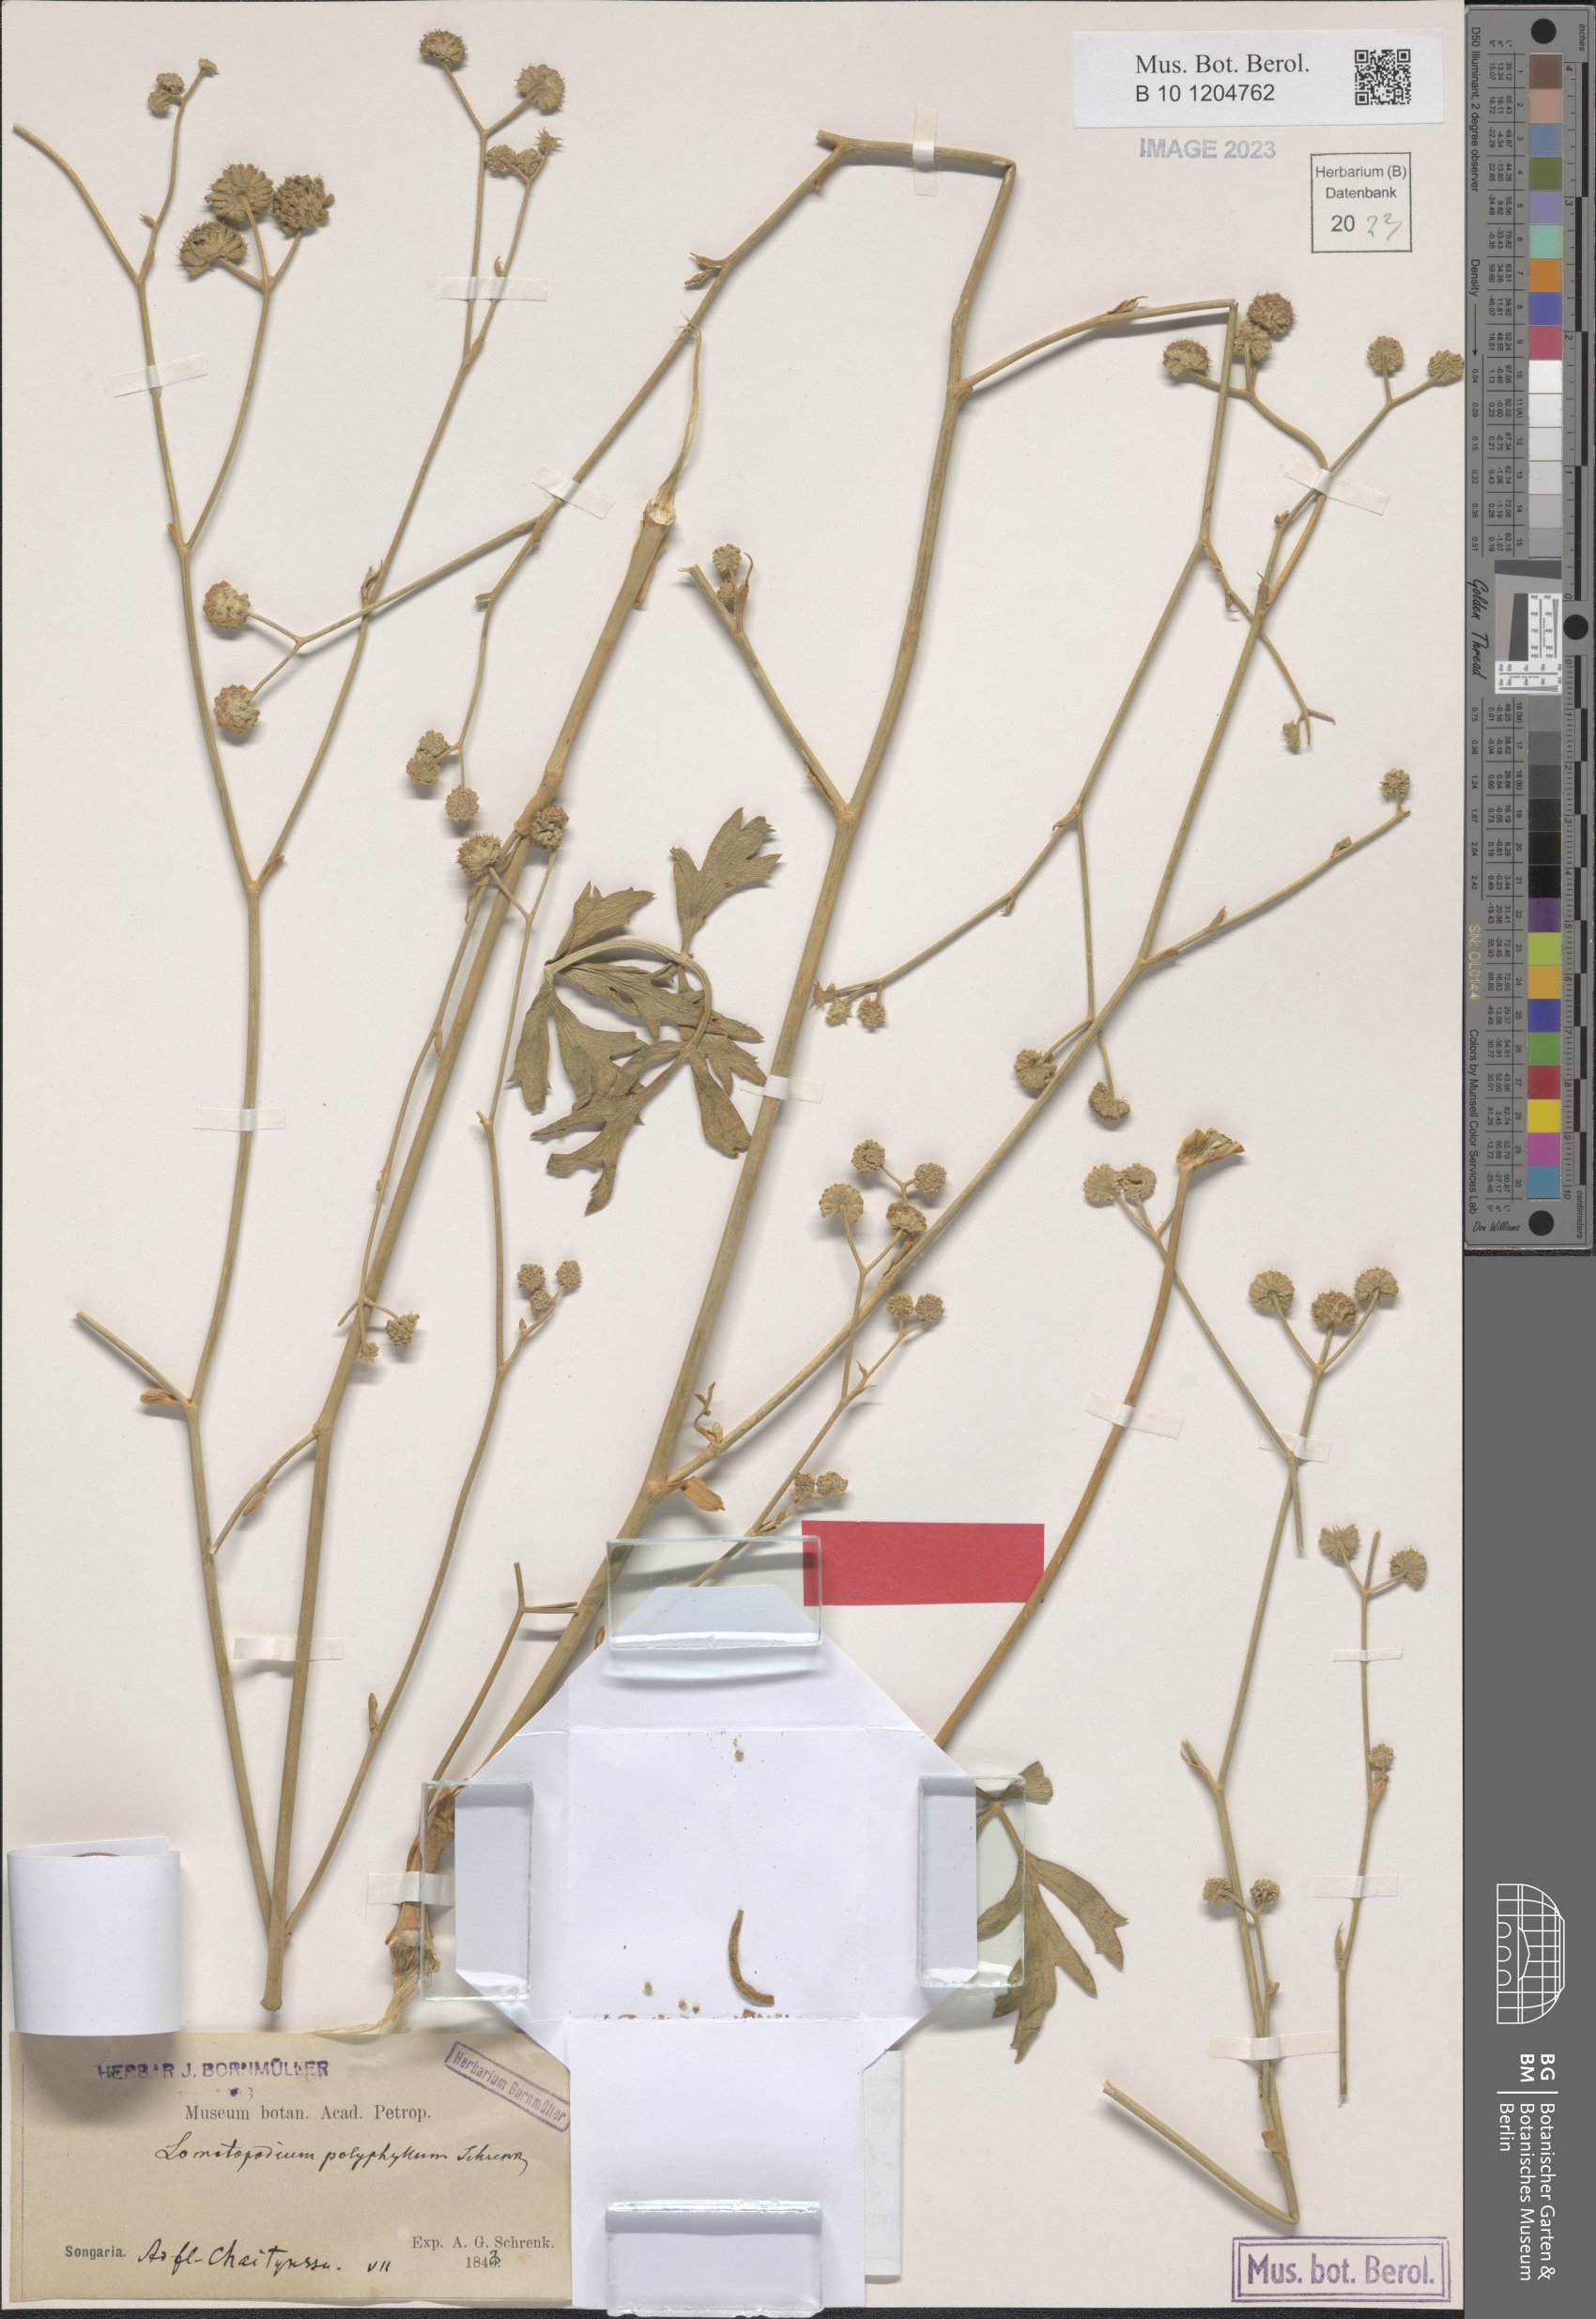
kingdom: Plantae
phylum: Tracheophyta
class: Magnoliopsida
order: Apiales
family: Apiaceae
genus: Seseli
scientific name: Seseli eriocephalum
